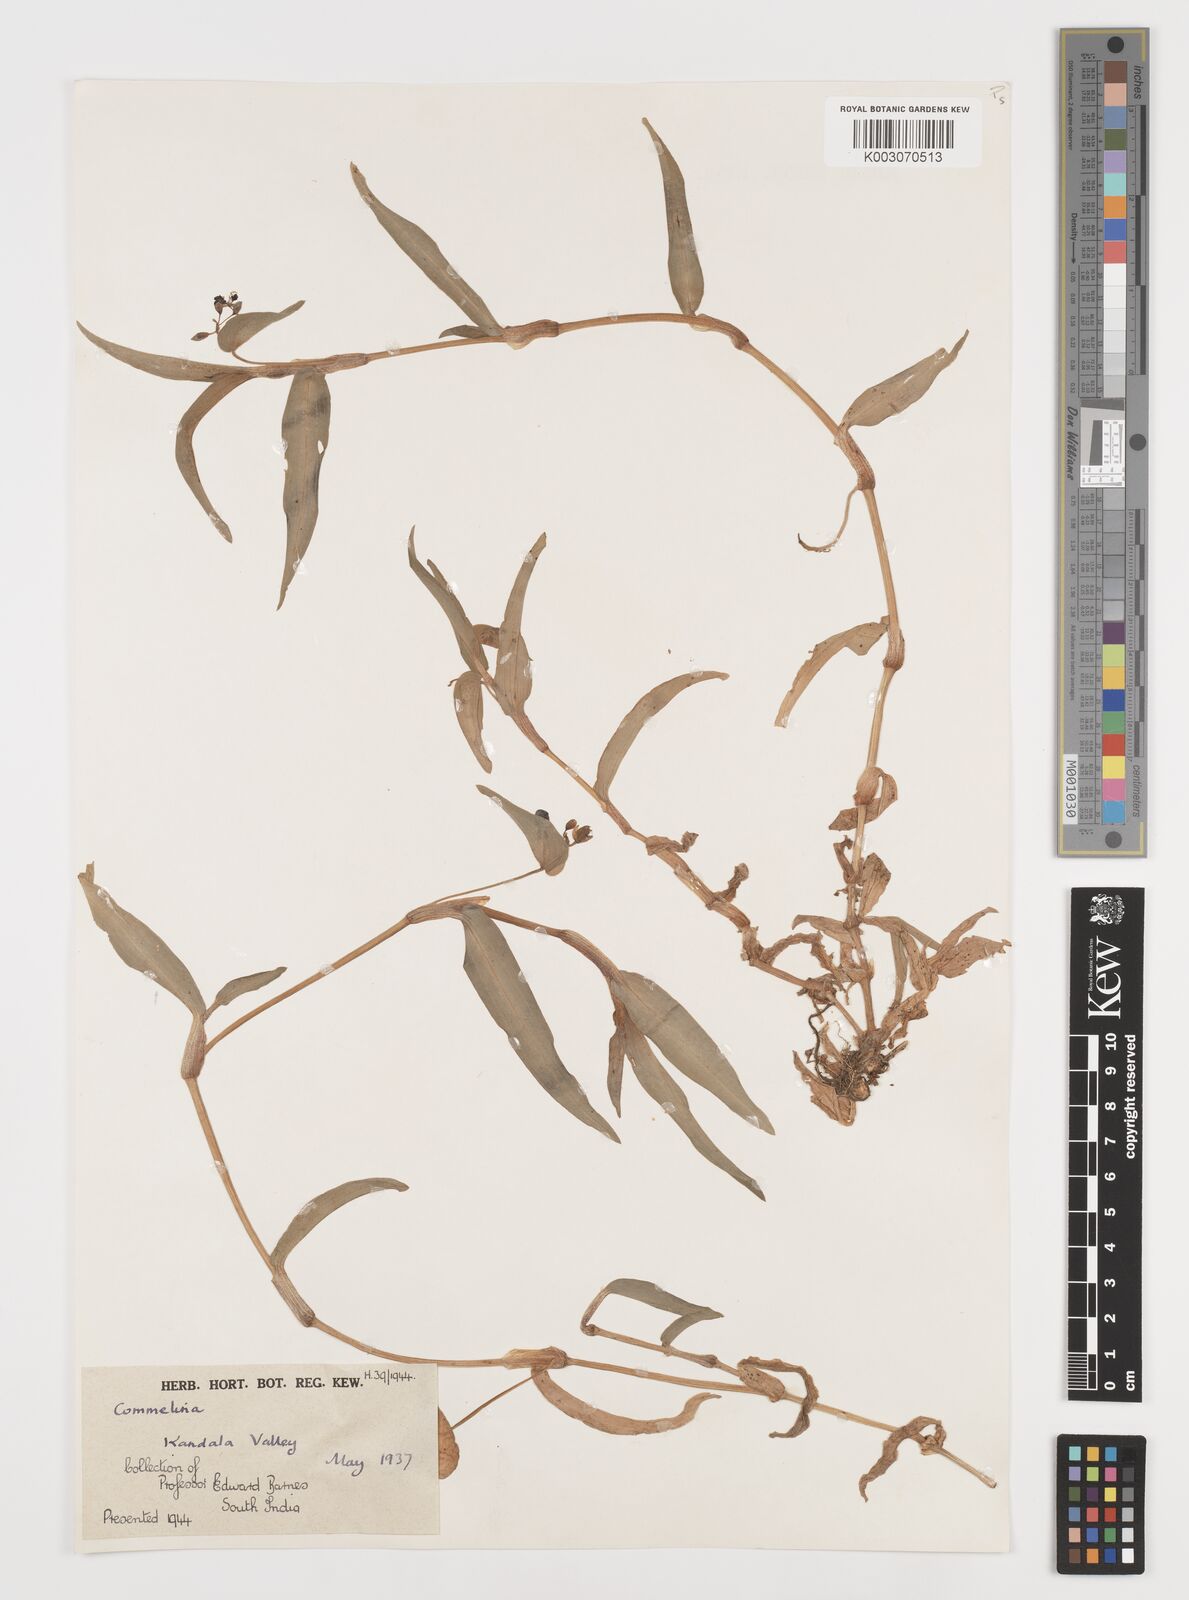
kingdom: Plantae
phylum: Tracheophyta
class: Liliopsida
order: Commelinales
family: Commelinaceae
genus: Commelina
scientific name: Commelina
